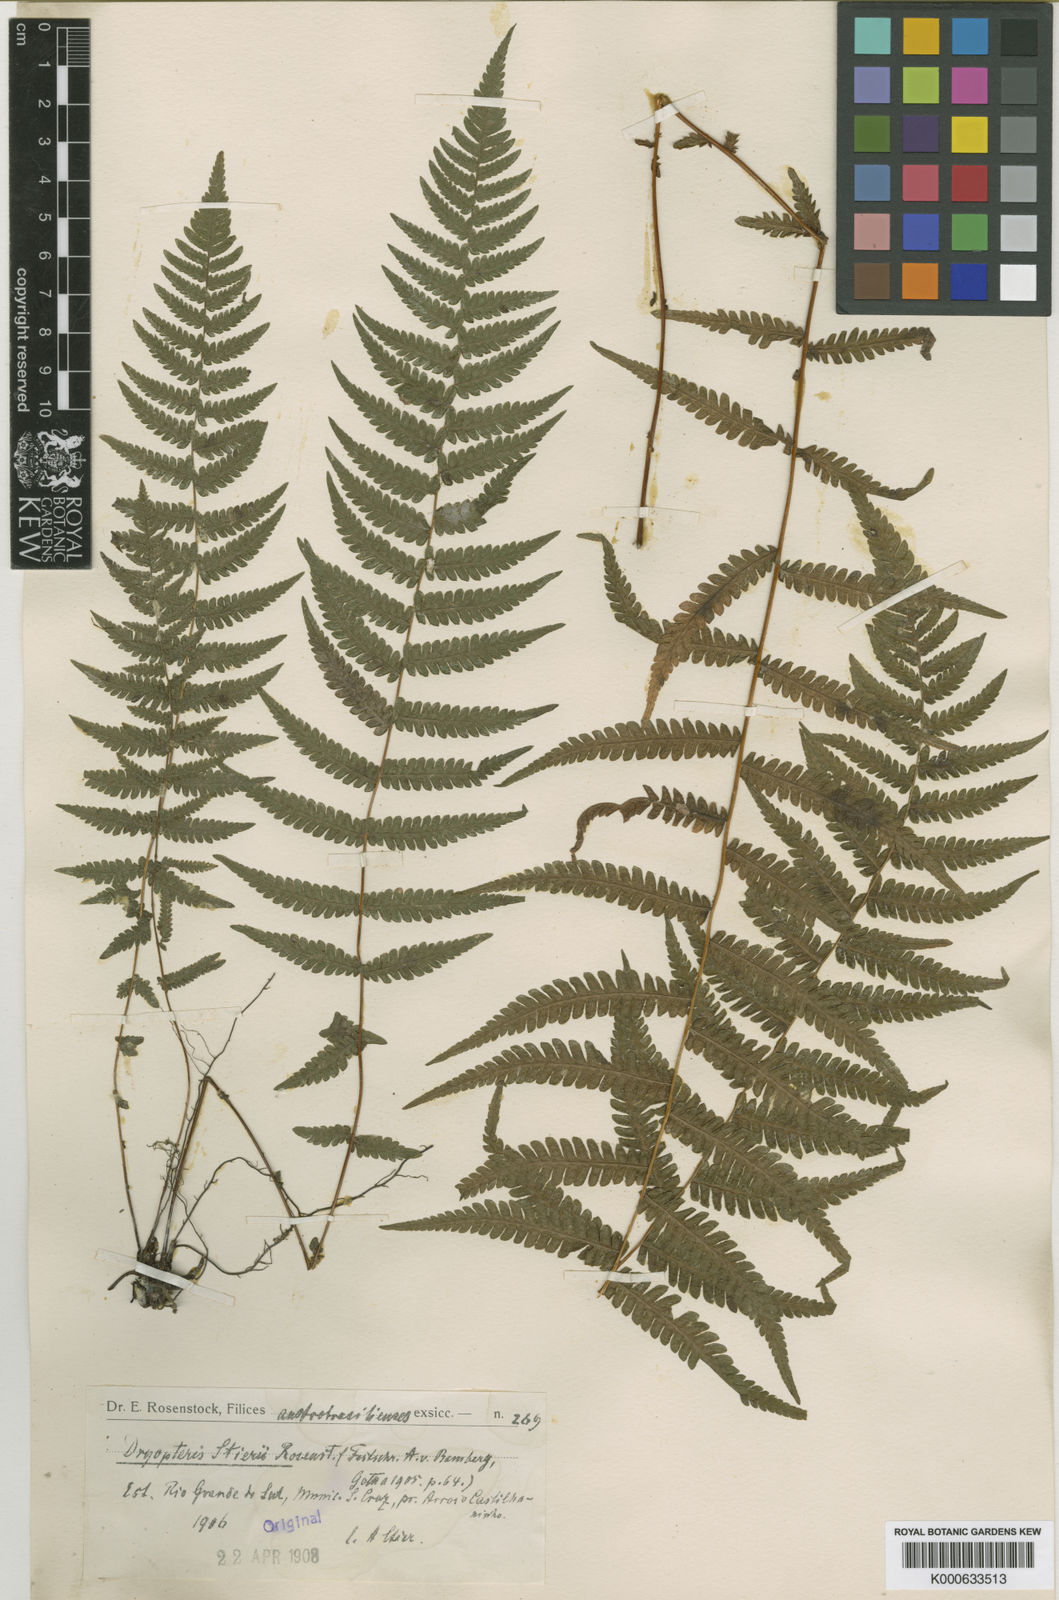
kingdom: Plantae
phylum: Tracheophyta
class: Polypodiopsida
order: Polypodiales
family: Thelypteridaceae
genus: Amauropelta
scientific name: Amauropelta stierii
